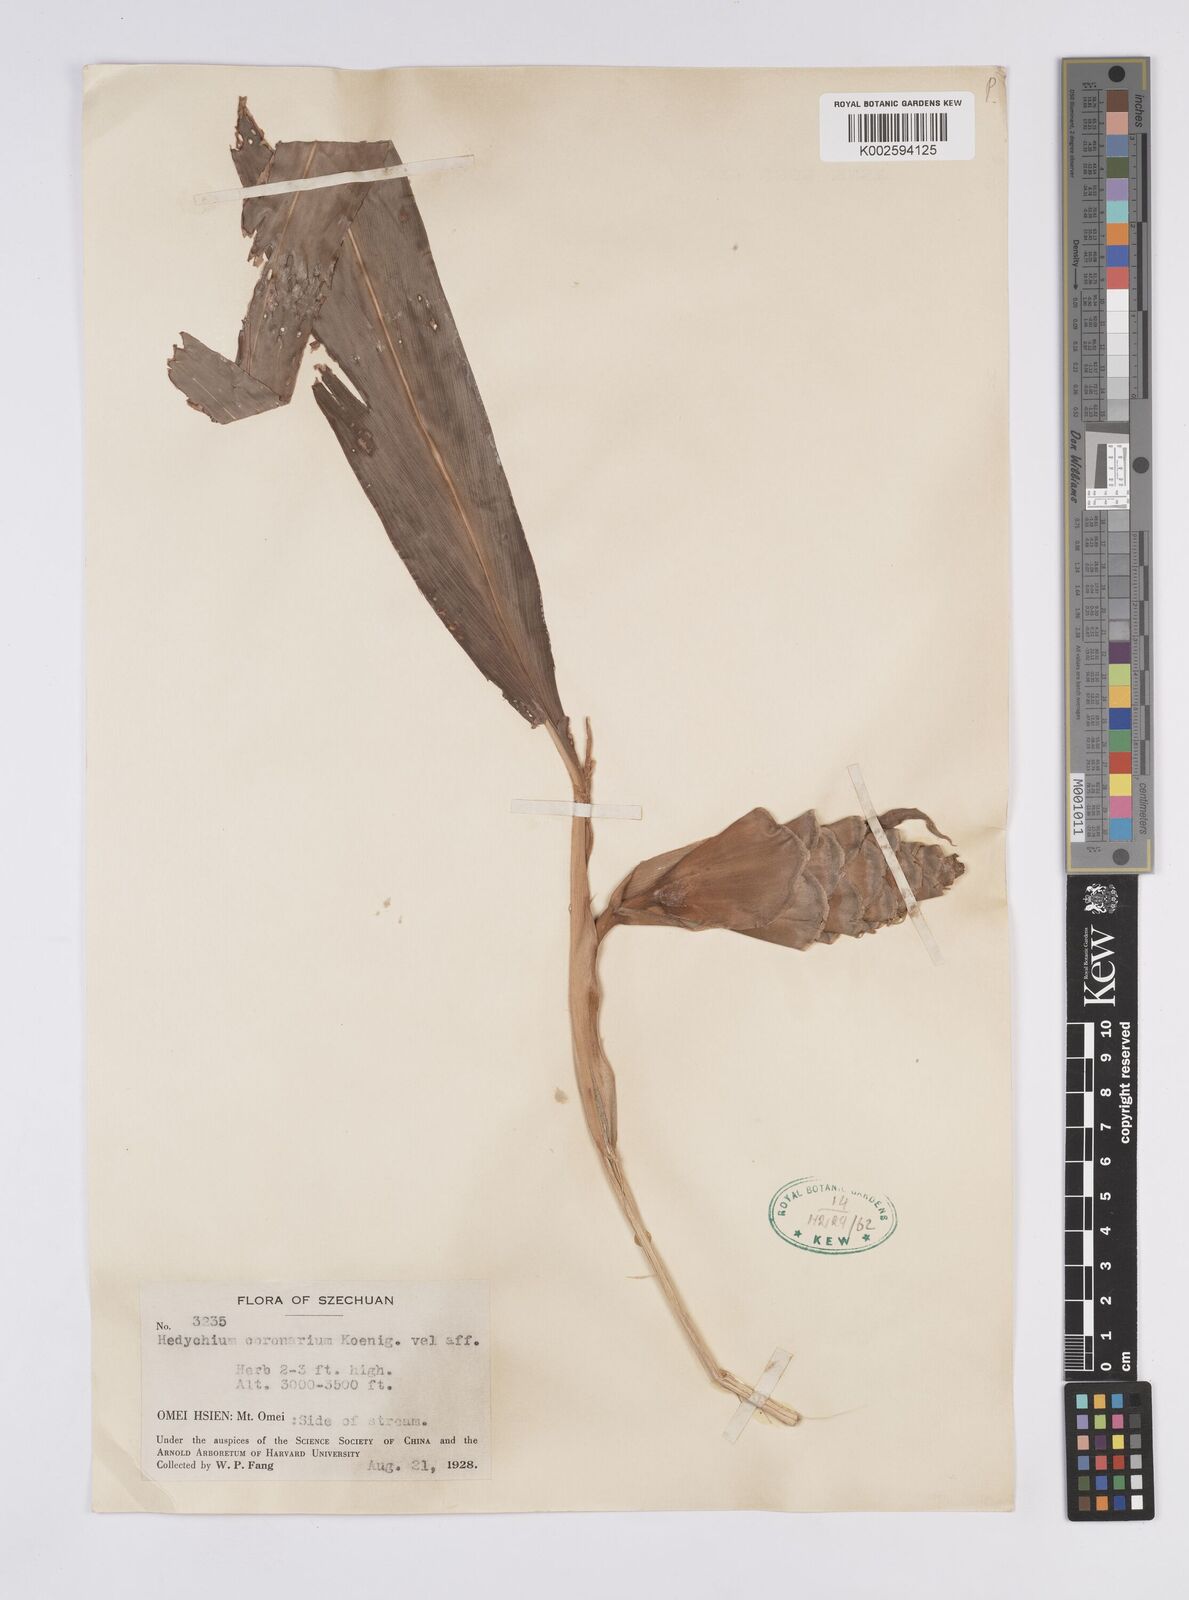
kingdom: Plantae
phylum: Tracheophyta
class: Liliopsida
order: Zingiberales
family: Zingiberaceae
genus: Hedychium
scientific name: Hedychium coronarium
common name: White garland-lily
